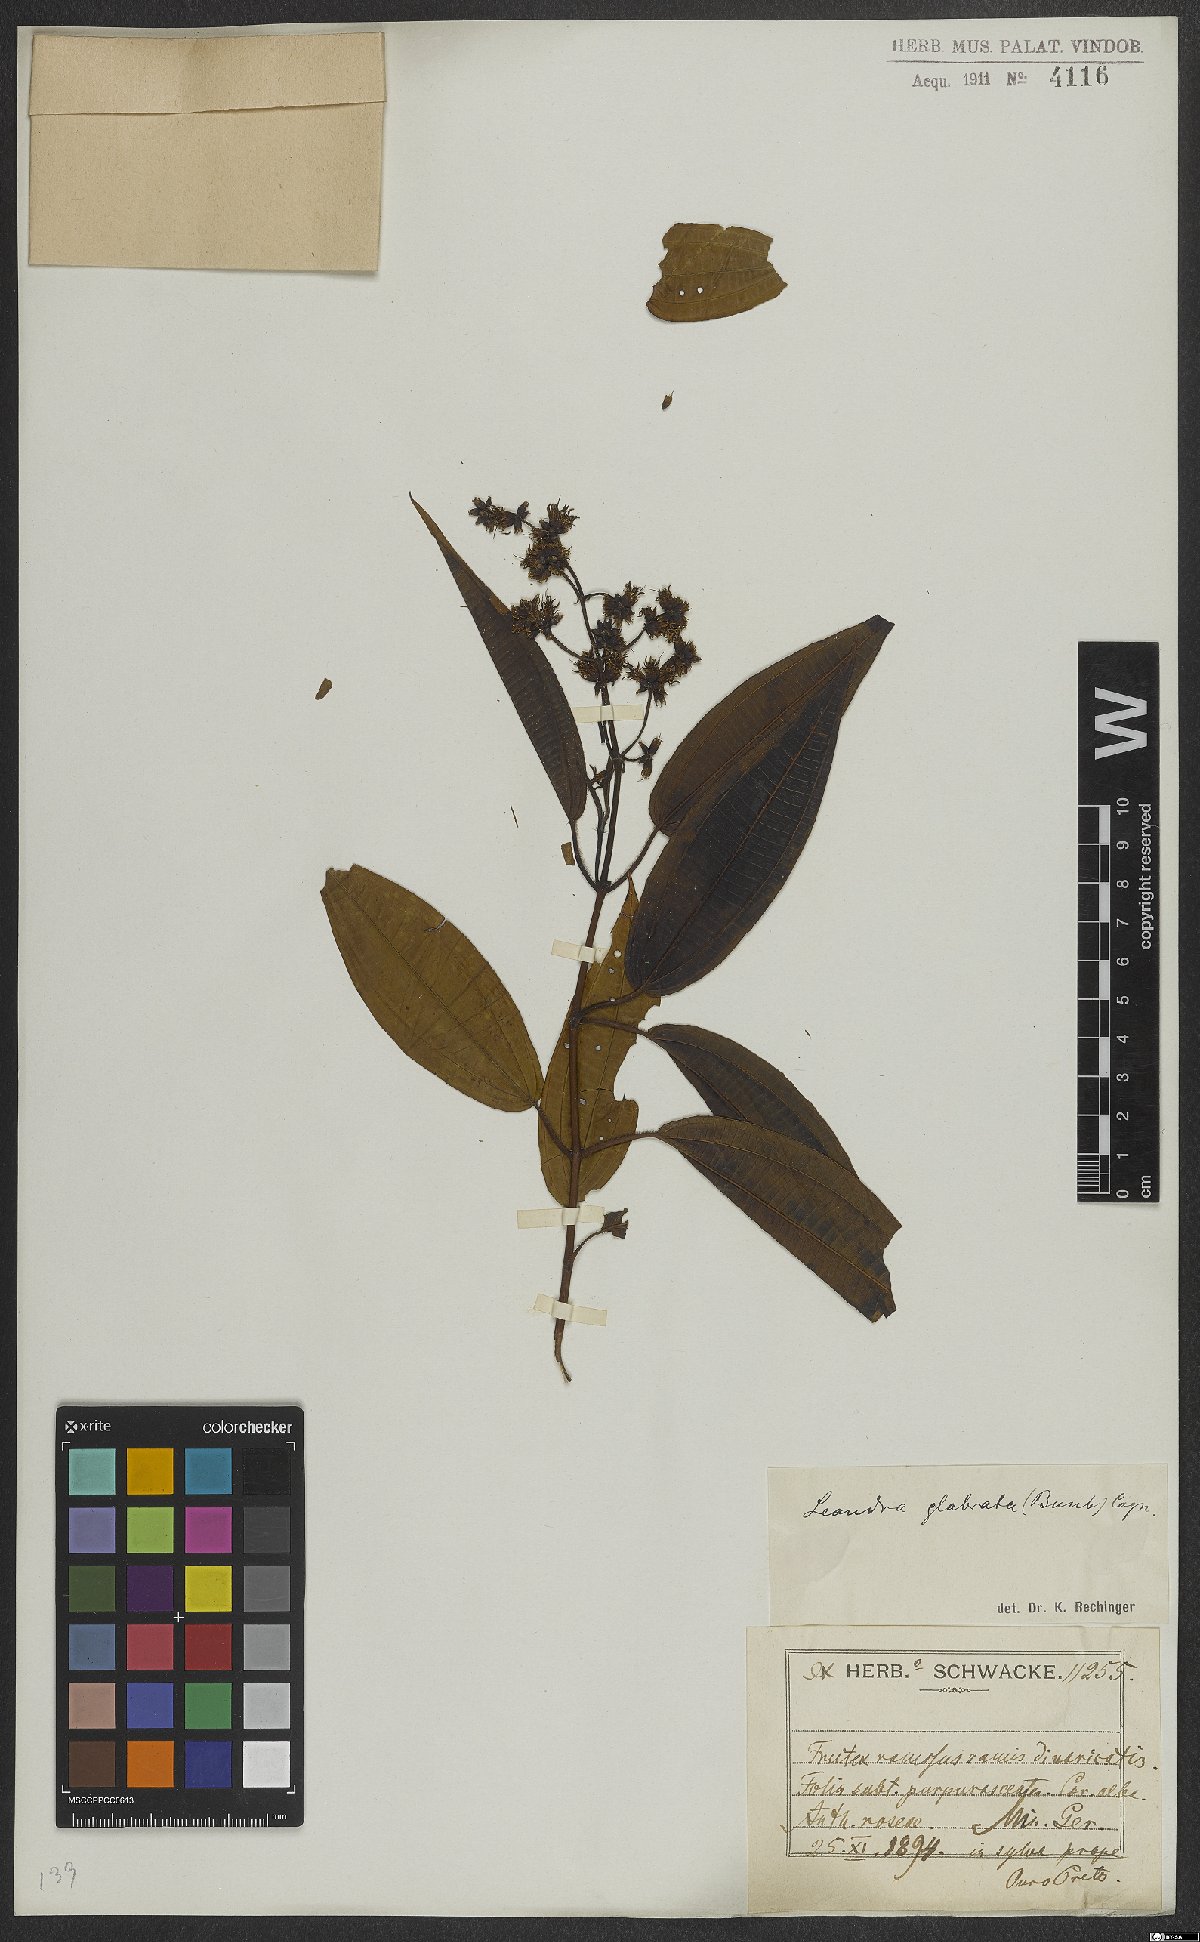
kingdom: Plantae
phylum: Tracheophyta
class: Magnoliopsida
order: Myrtales
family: Melastomataceae
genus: Miconia
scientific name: Miconia dolichostachya
